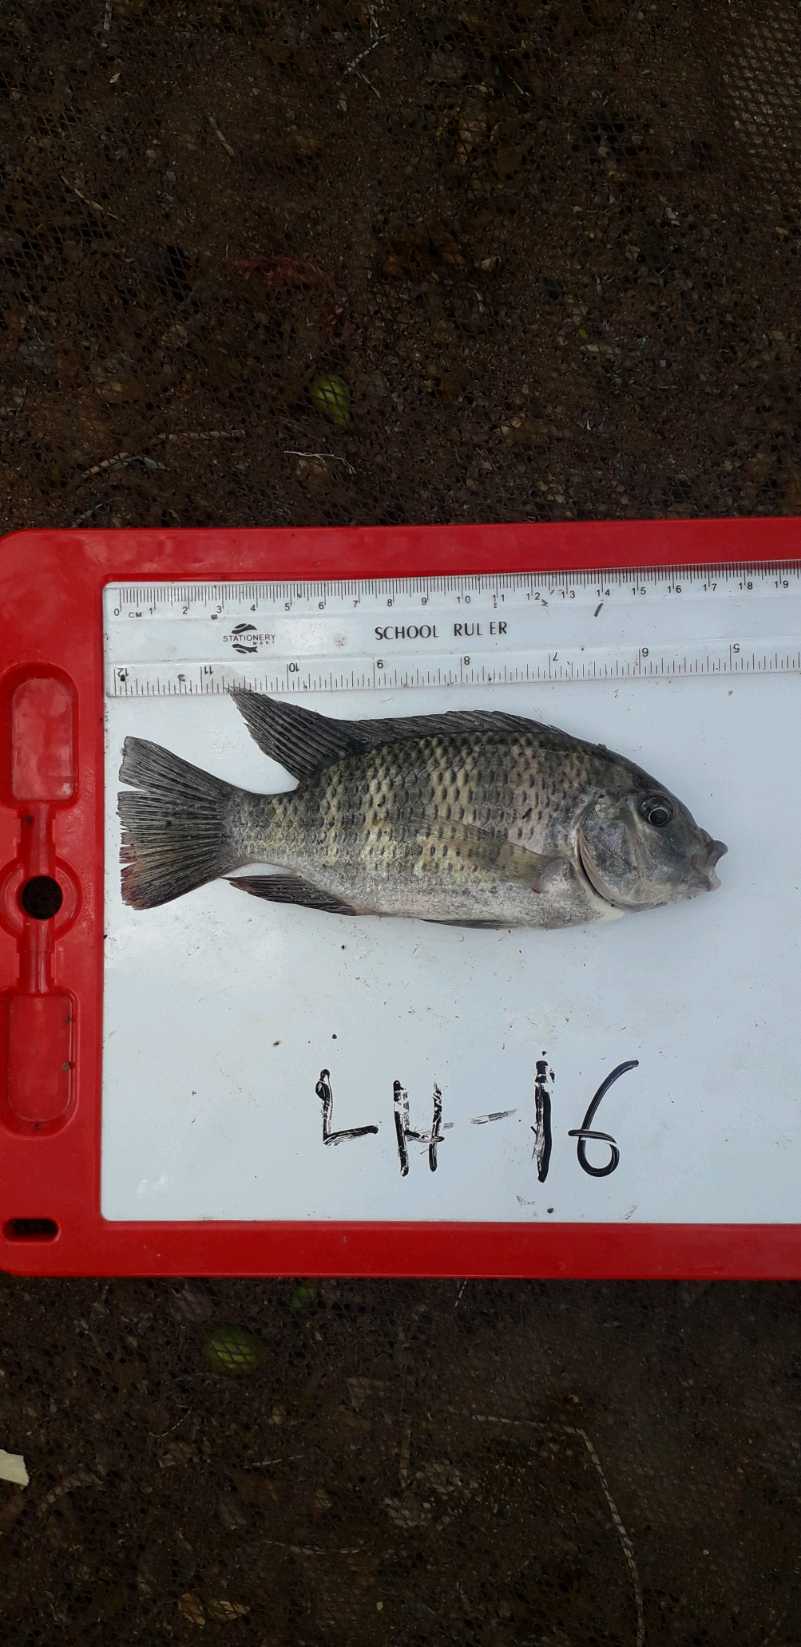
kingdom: Animalia
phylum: Chordata
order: Perciformes
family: Cichlidae
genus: Coptodon
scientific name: Coptodon rendalli
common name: Redbreast tilapia
